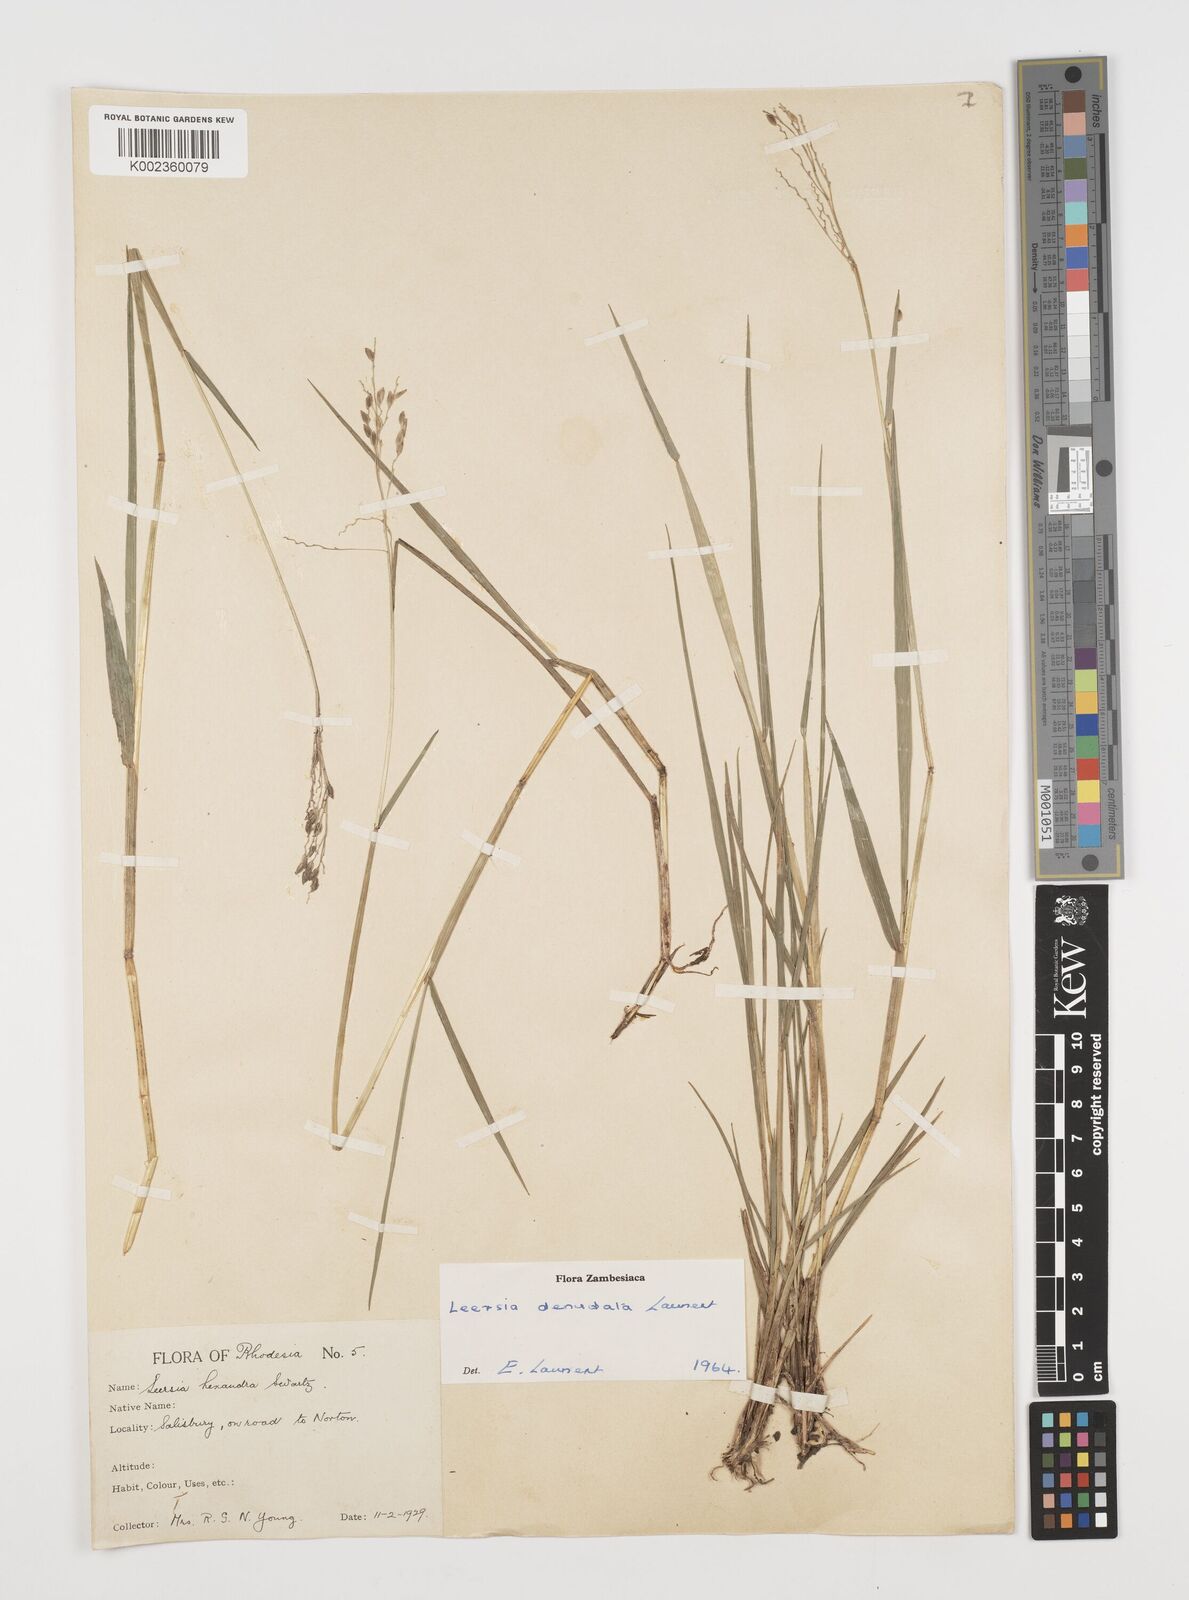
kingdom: Plantae
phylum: Tracheophyta
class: Liliopsida
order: Poales
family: Poaceae
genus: Leersia
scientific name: Leersia denudata
